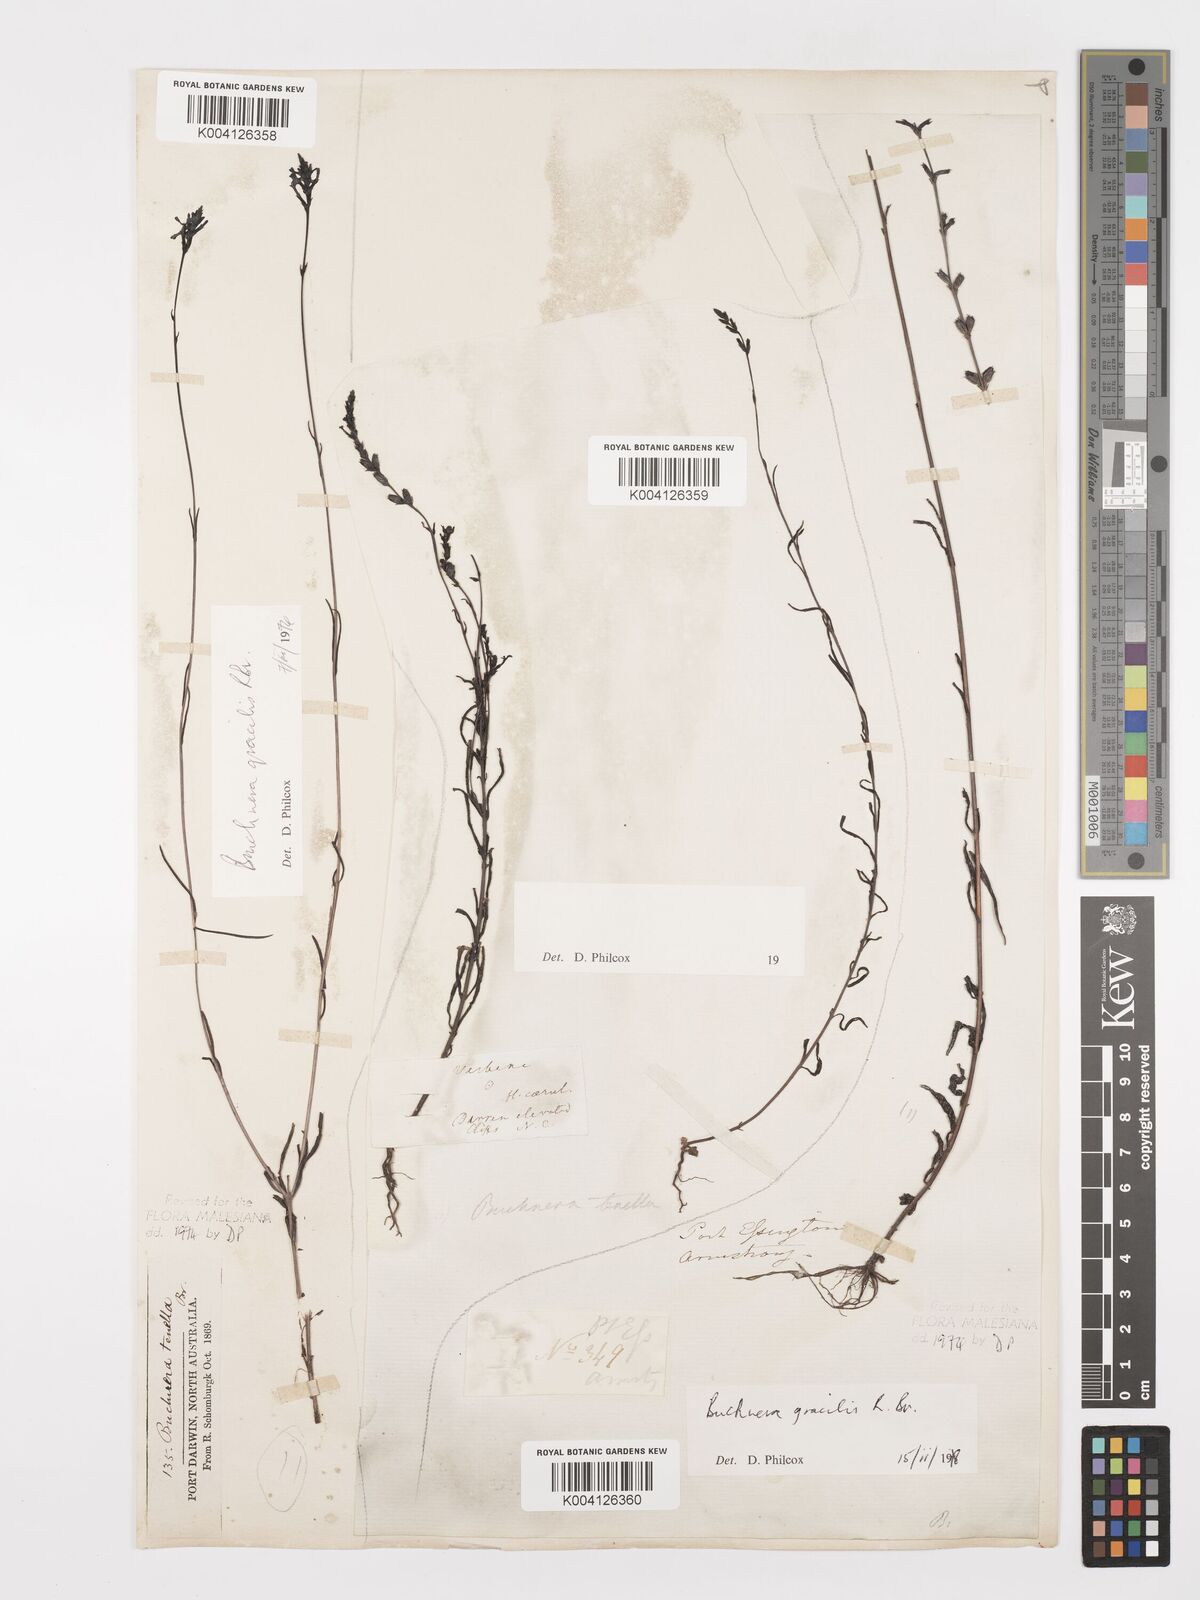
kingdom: Plantae
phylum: Tracheophyta
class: Magnoliopsida
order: Lamiales
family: Orobanchaceae
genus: Buchnera
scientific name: Buchnera gracilis
